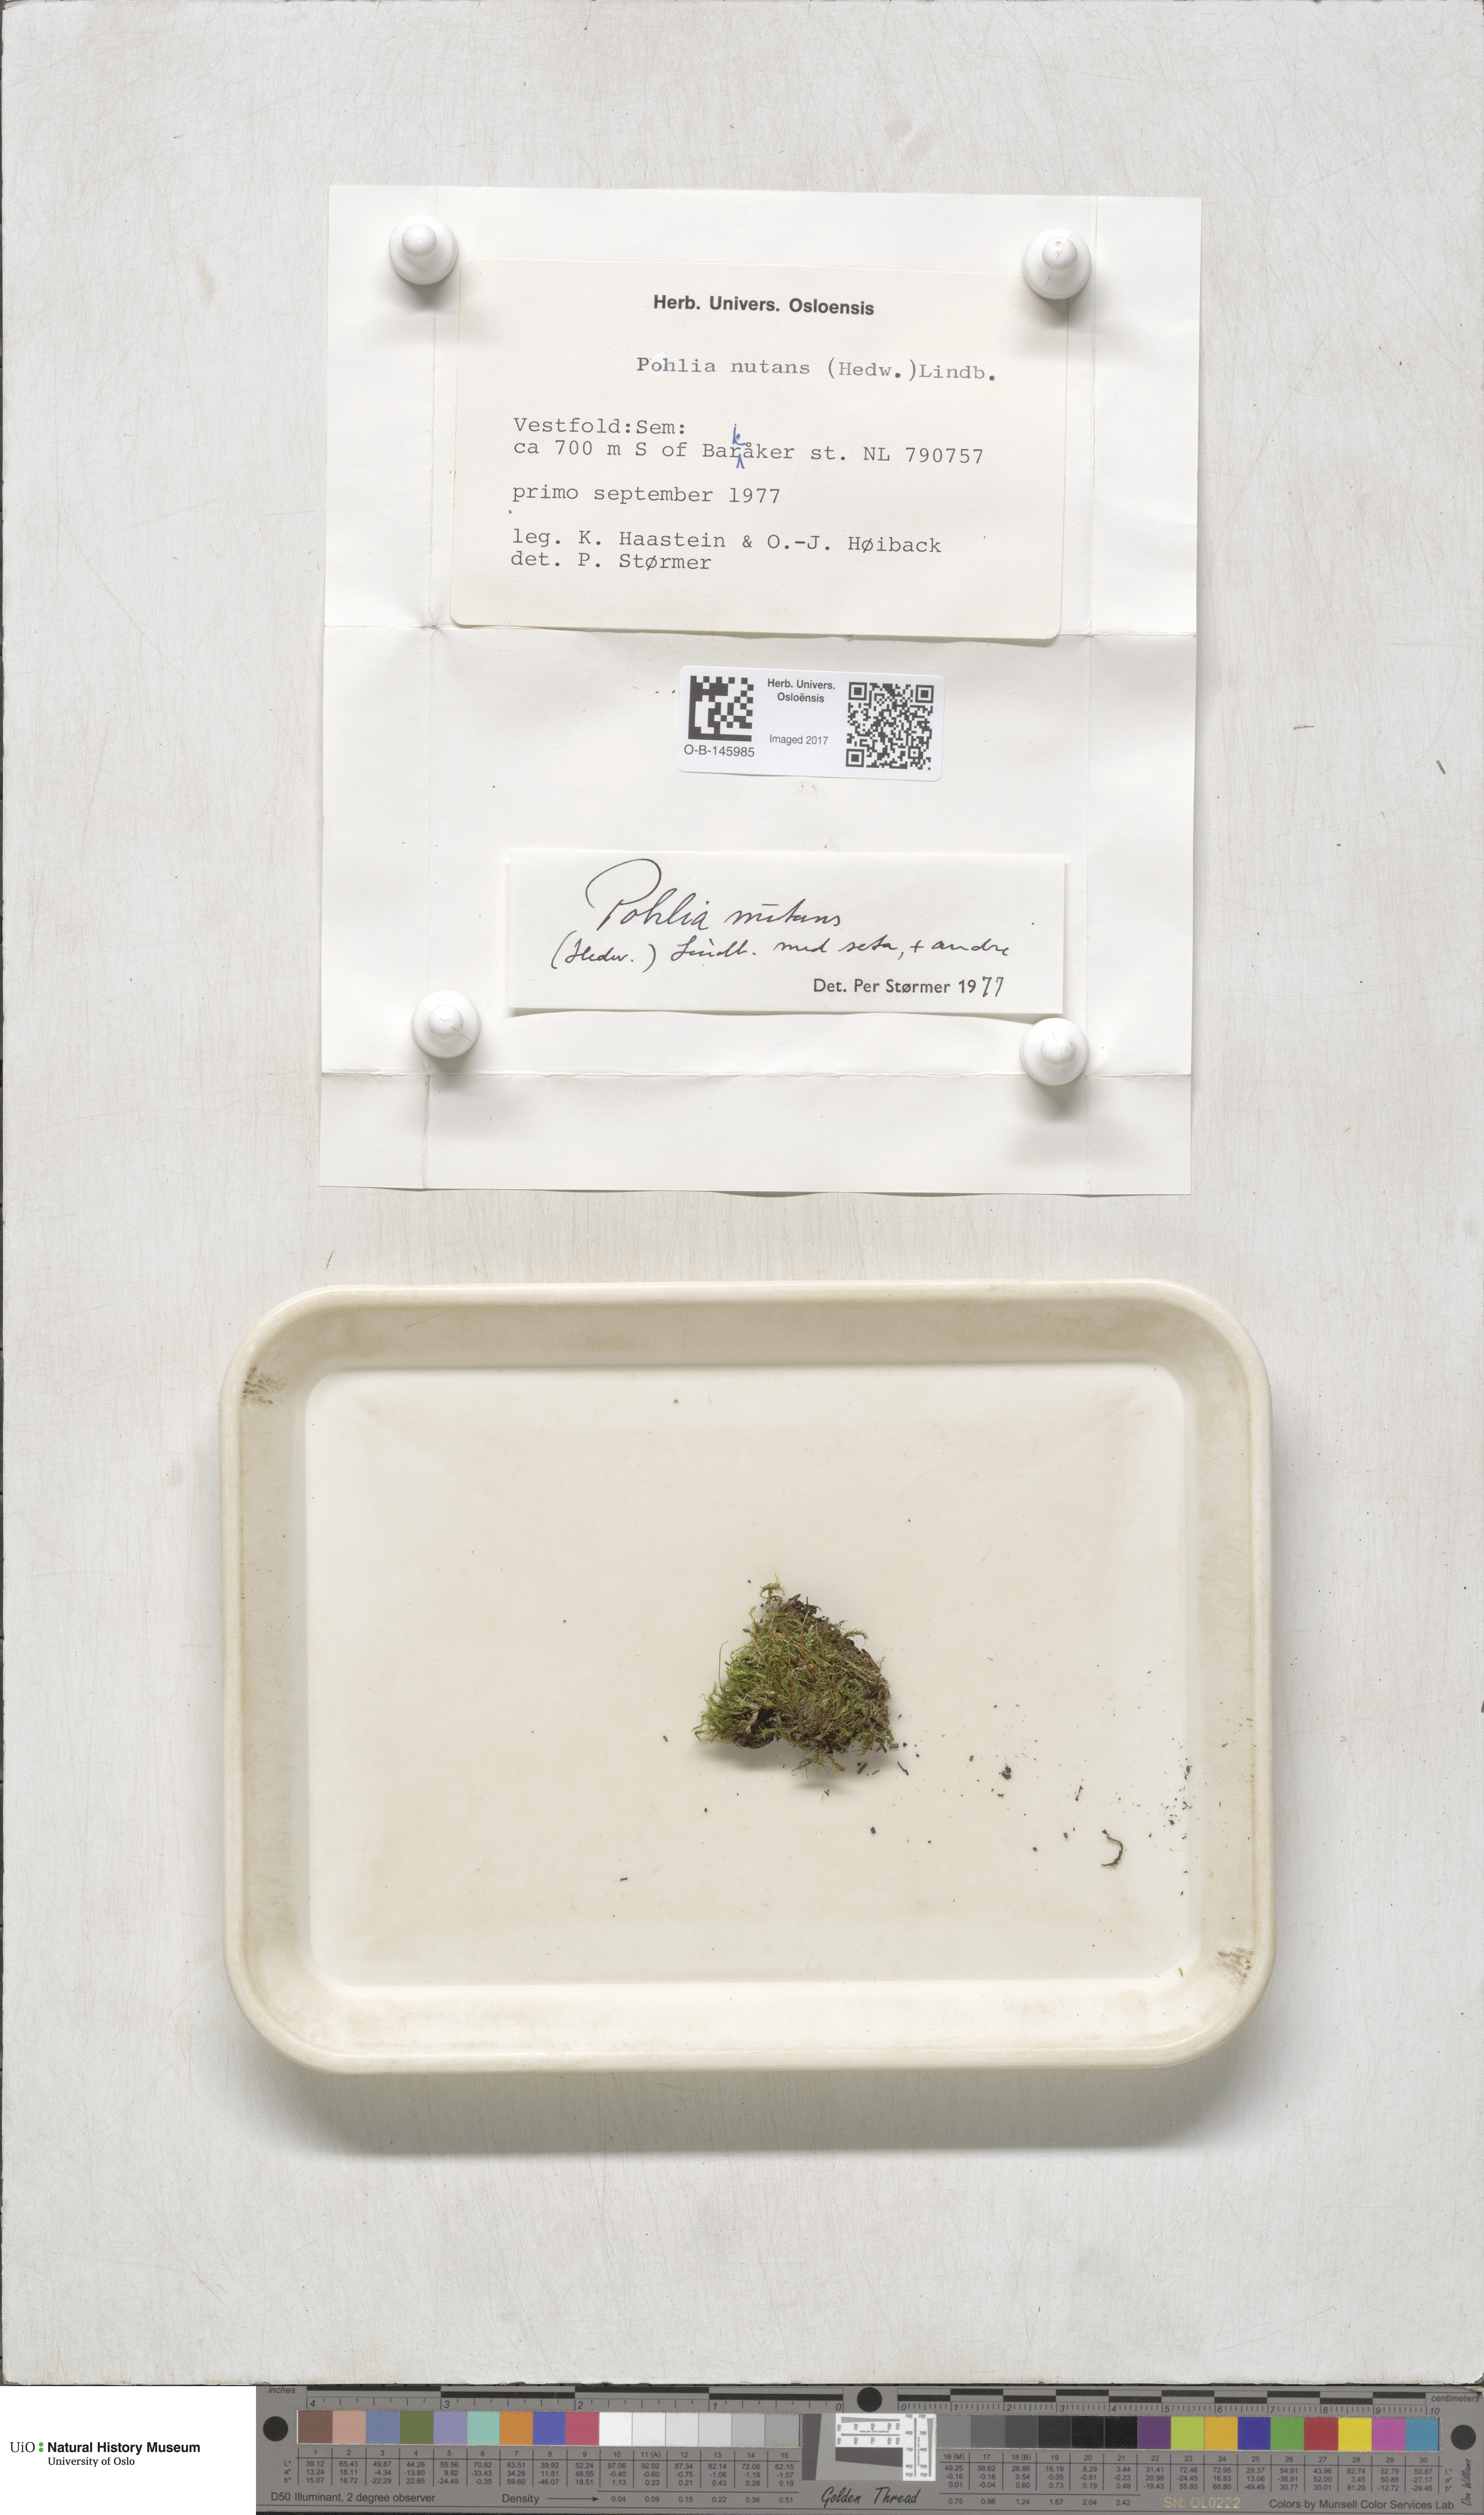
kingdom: Plantae
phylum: Bryophyta
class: Bryopsida
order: Bryales
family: Mniaceae
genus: Pohlia
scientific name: Pohlia nutans
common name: Nodding thread-moss
